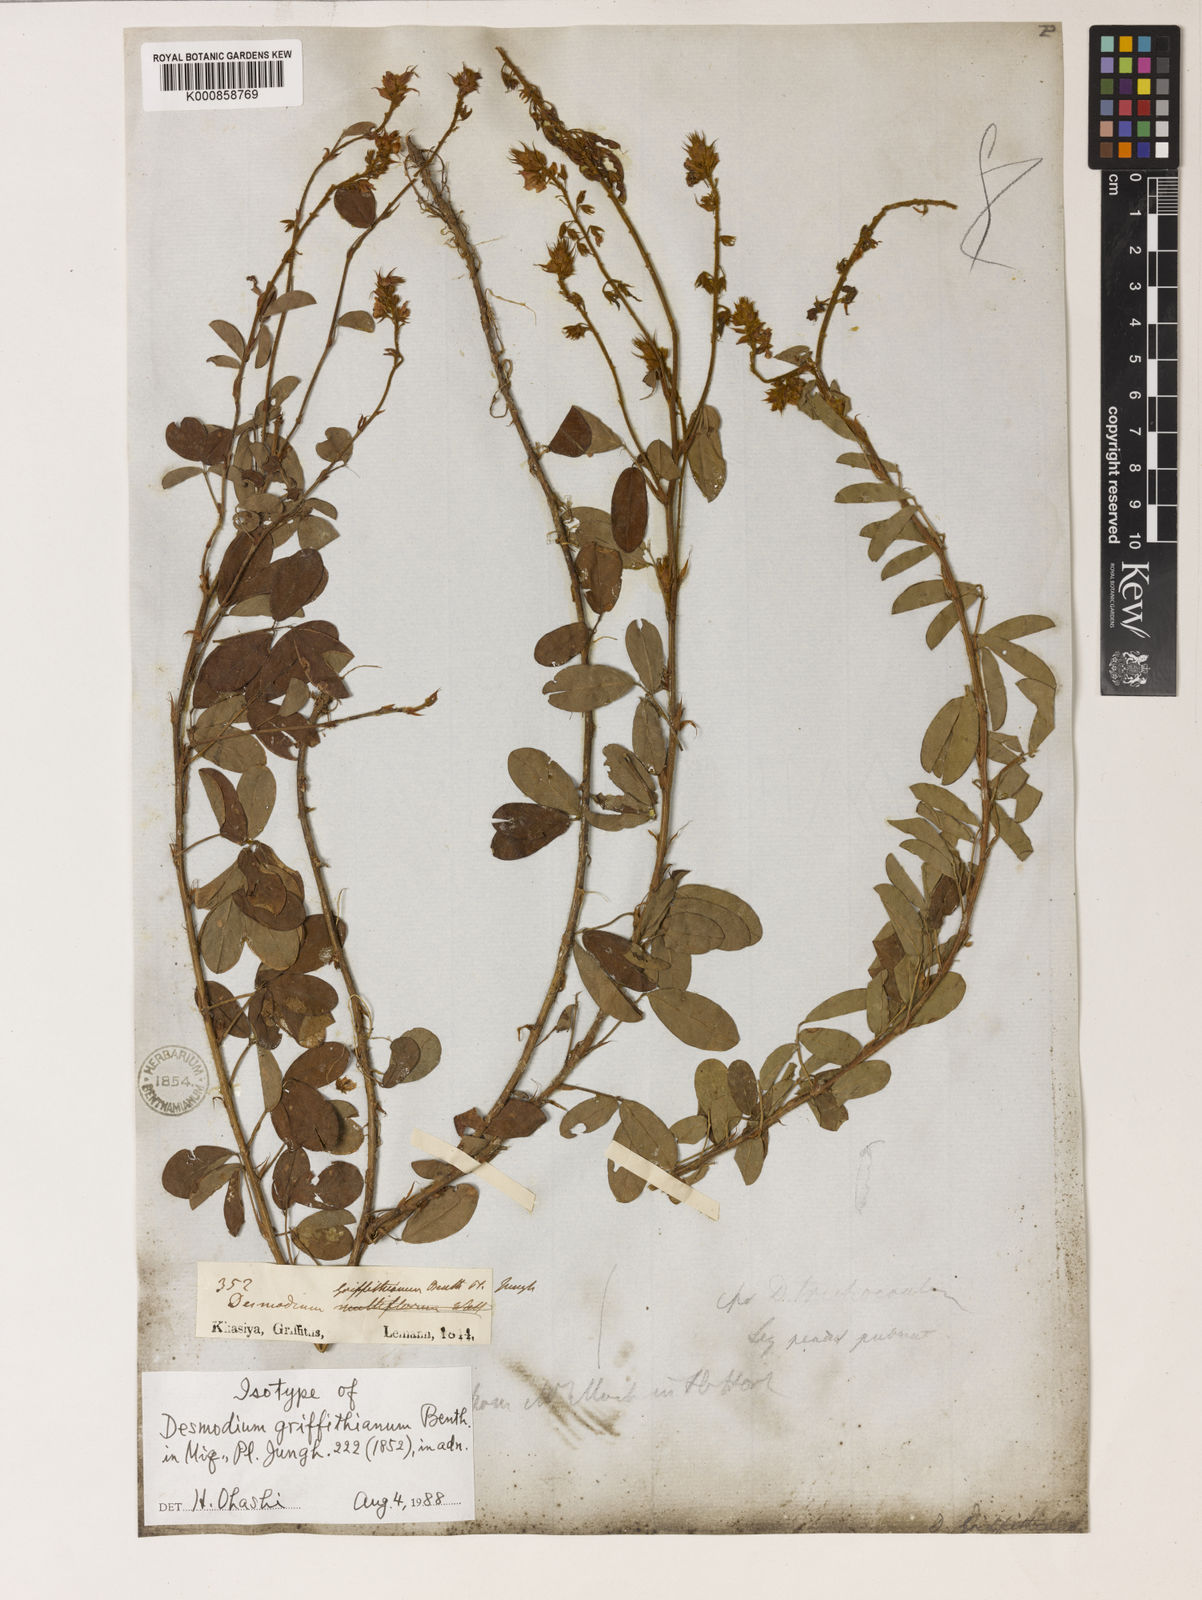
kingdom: Plantae
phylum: Tracheophyta
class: Magnoliopsida
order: Fabales
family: Fabaceae
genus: Grona
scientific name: Grona griffithiana
